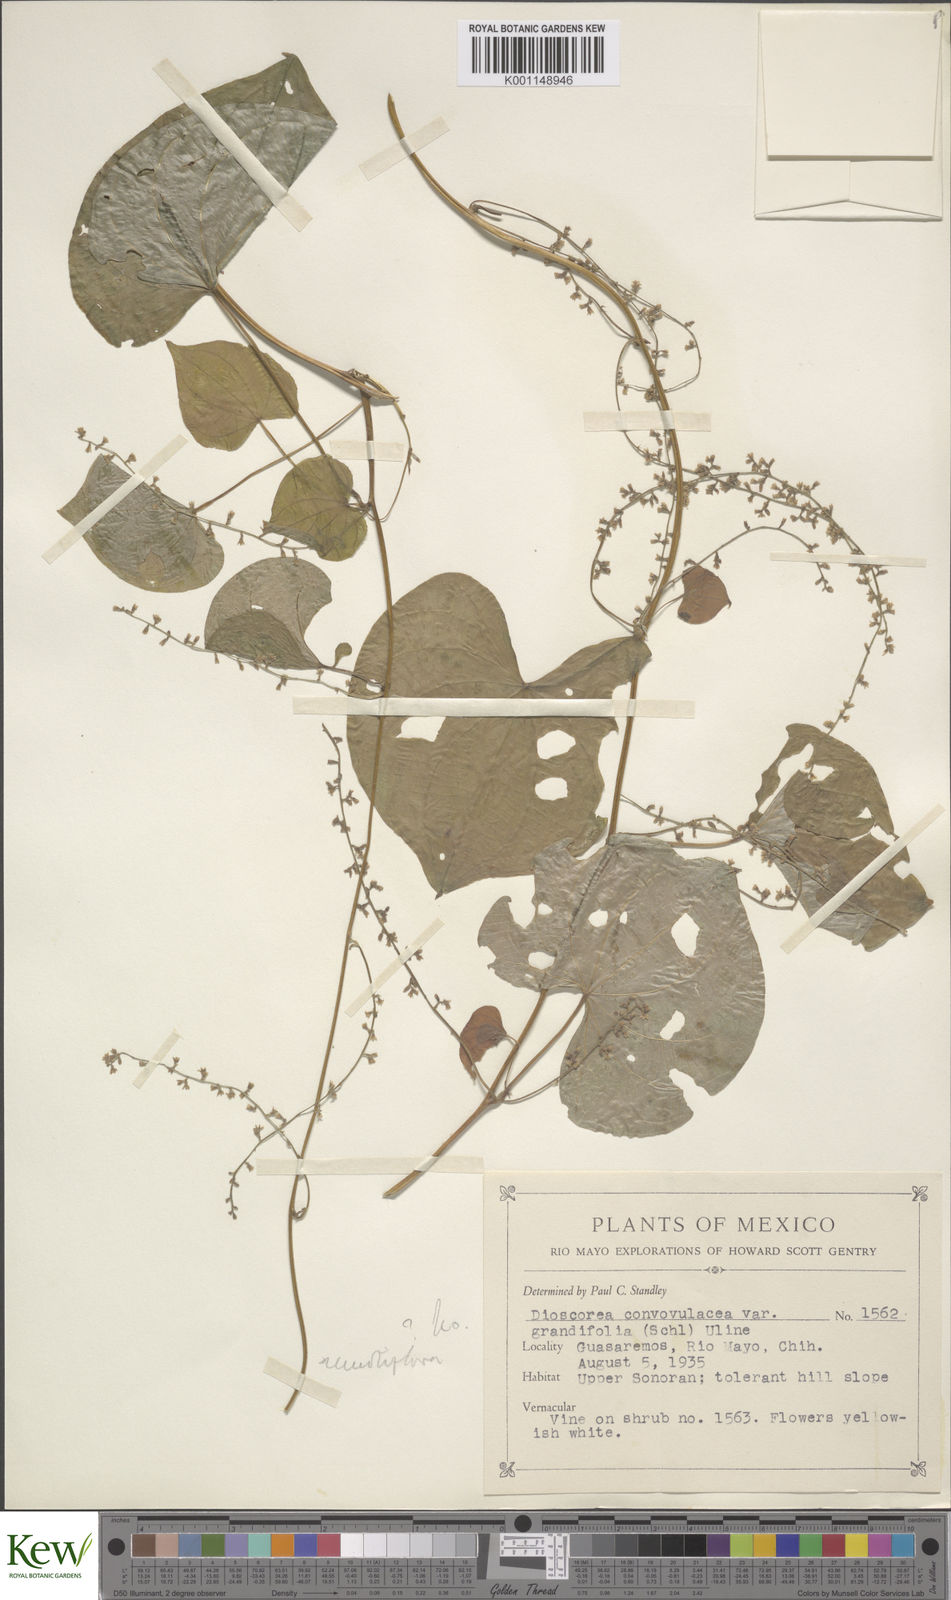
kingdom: Plantae
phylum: Tracheophyta
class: Liliopsida
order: Dioscoreales
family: Dioscoreaceae
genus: Dioscorea
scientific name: Dioscorea remotiflora
